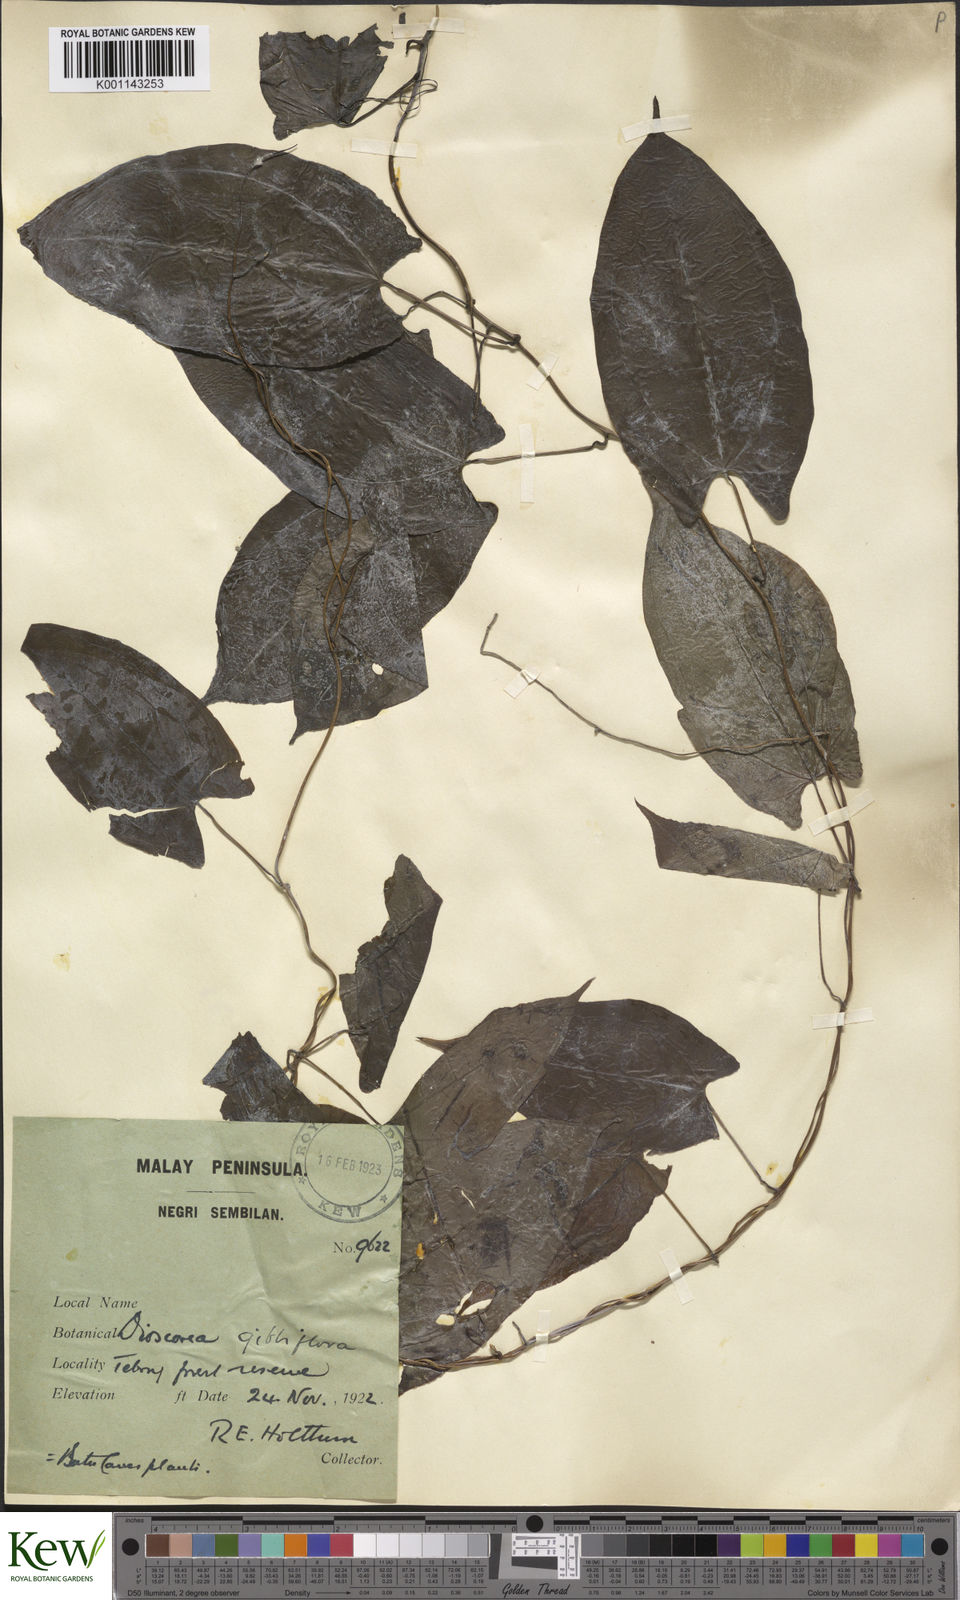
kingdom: Plantae
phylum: Tracheophyta
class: Liliopsida
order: Dioscoreales
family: Dioscoreaceae
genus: Dioscorea
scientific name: Dioscorea filiformis
